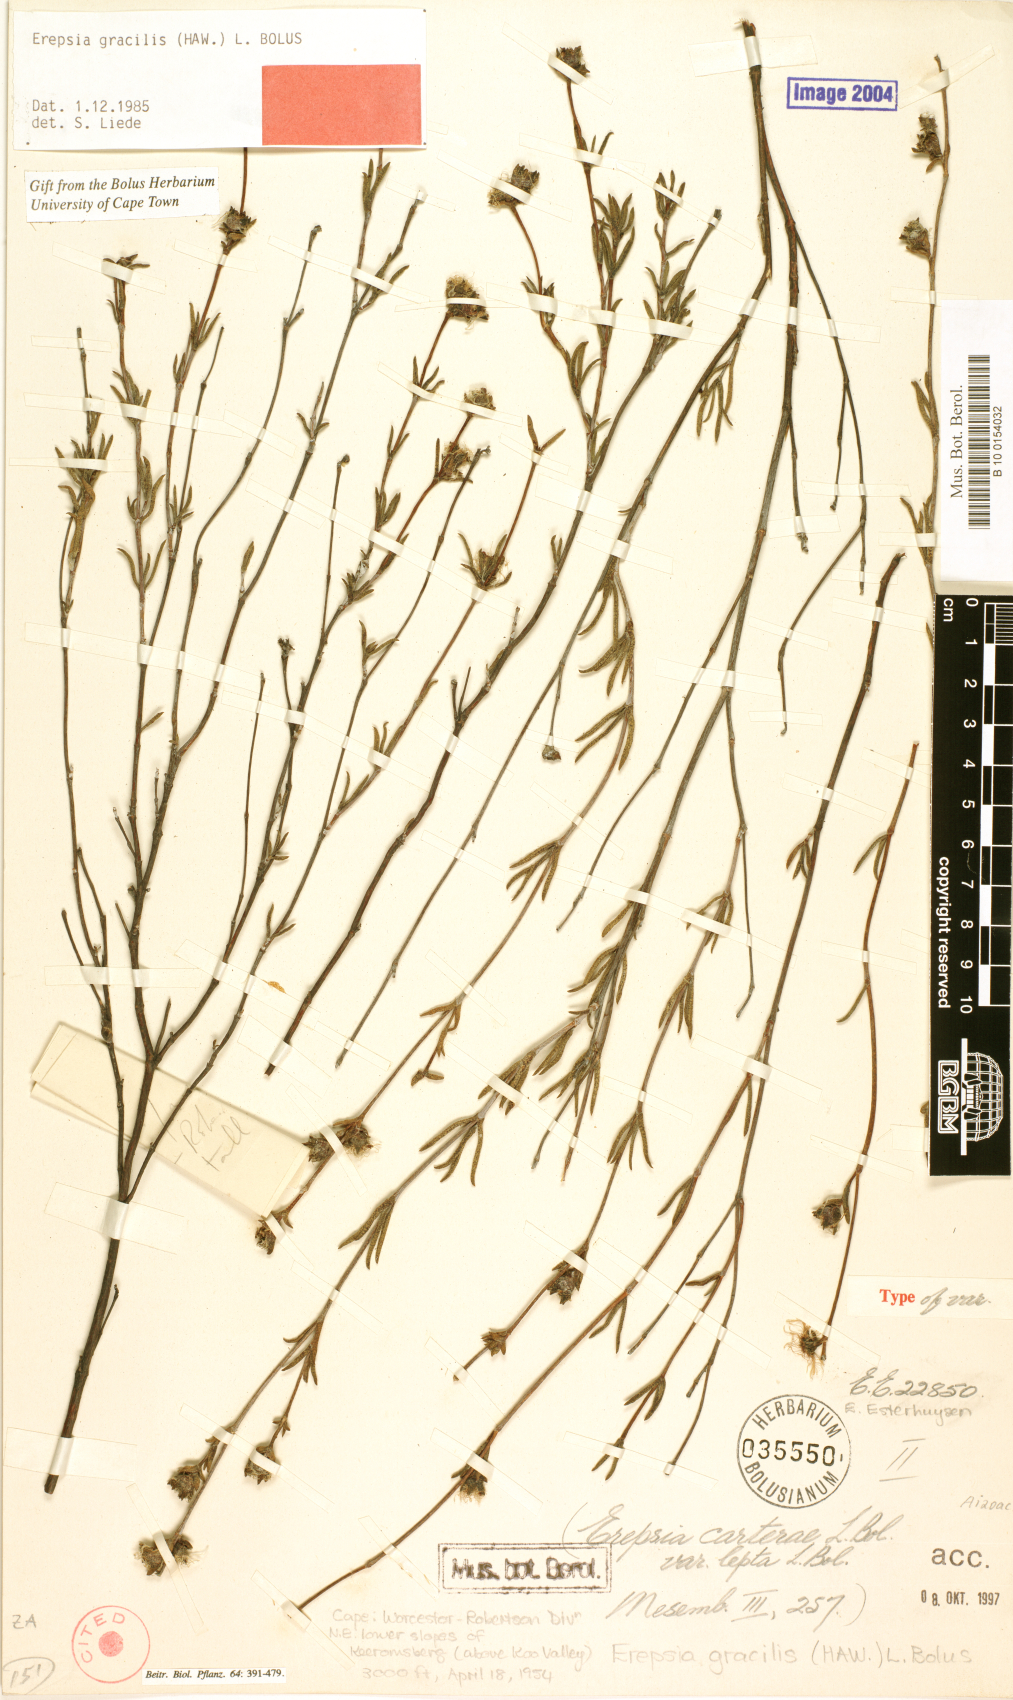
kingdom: Plantae
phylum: Tracheophyta
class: Magnoliopsida
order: Caryophyllales
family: Aizoaceae
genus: Erepsia
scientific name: Erepsia gracilis
